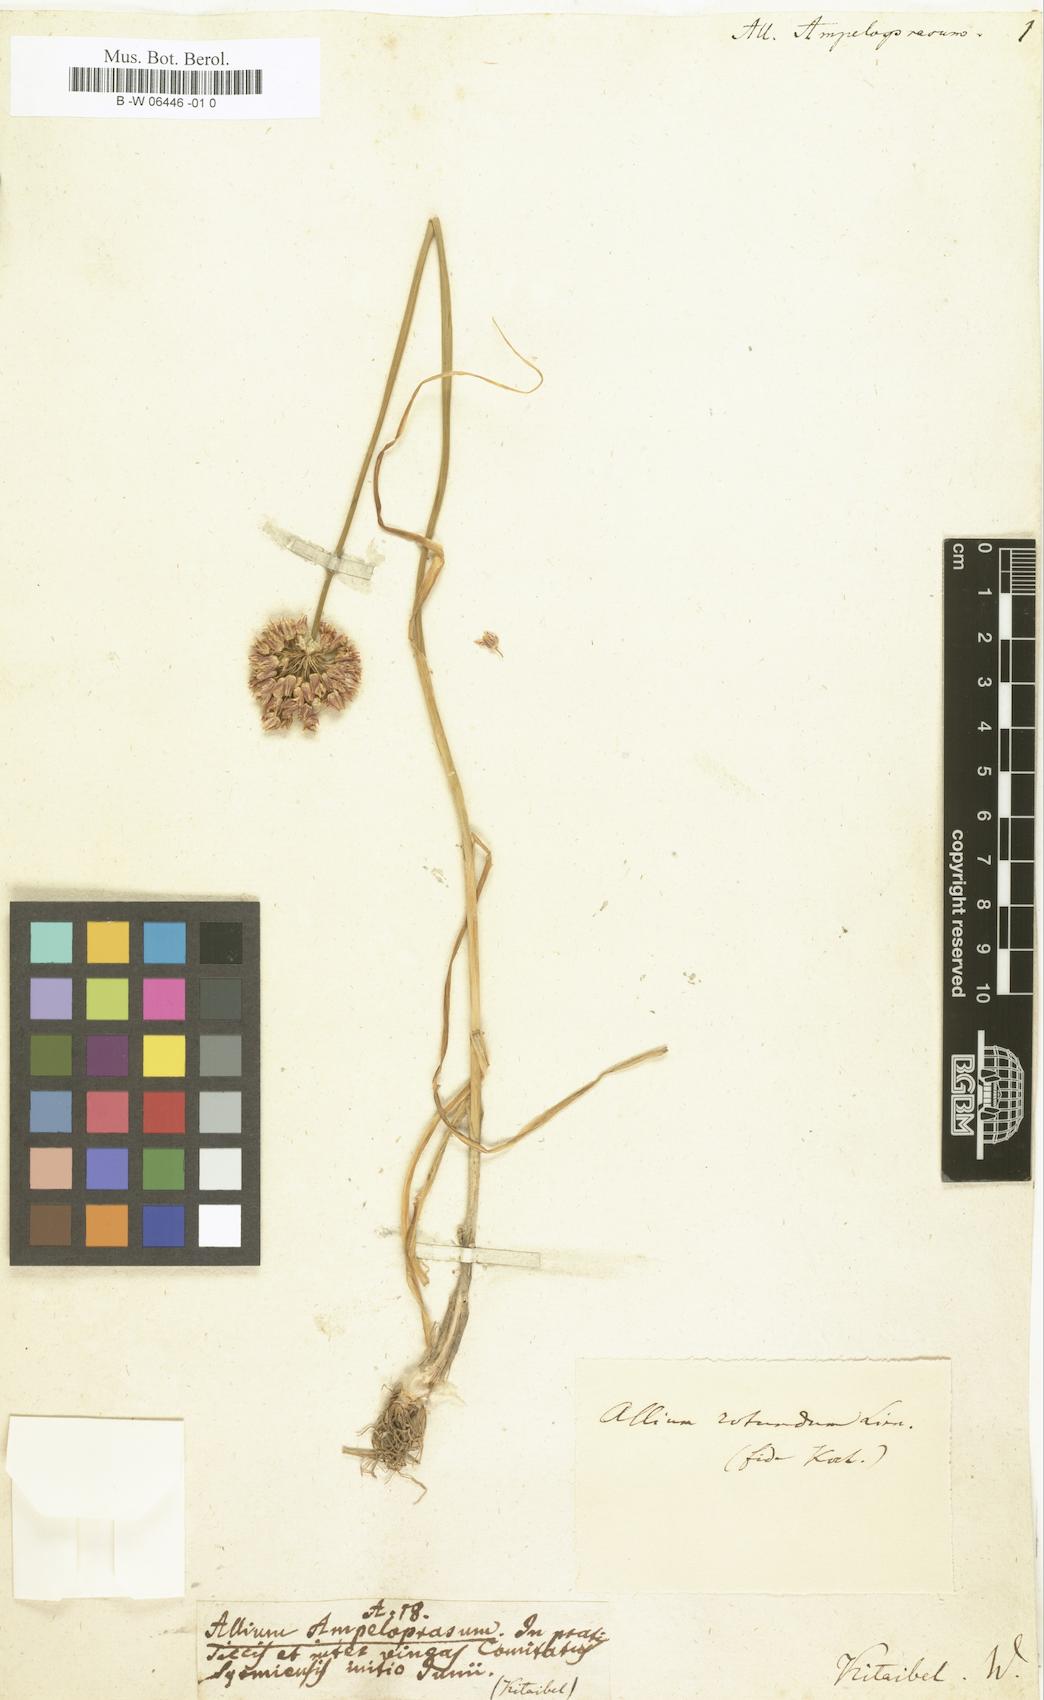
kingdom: Plantae
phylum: Tracheophyta
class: Liliopsida
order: Asparagales
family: Amaryllidaceae
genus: Allium
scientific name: Allium ampeloprasum
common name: Wild leek
